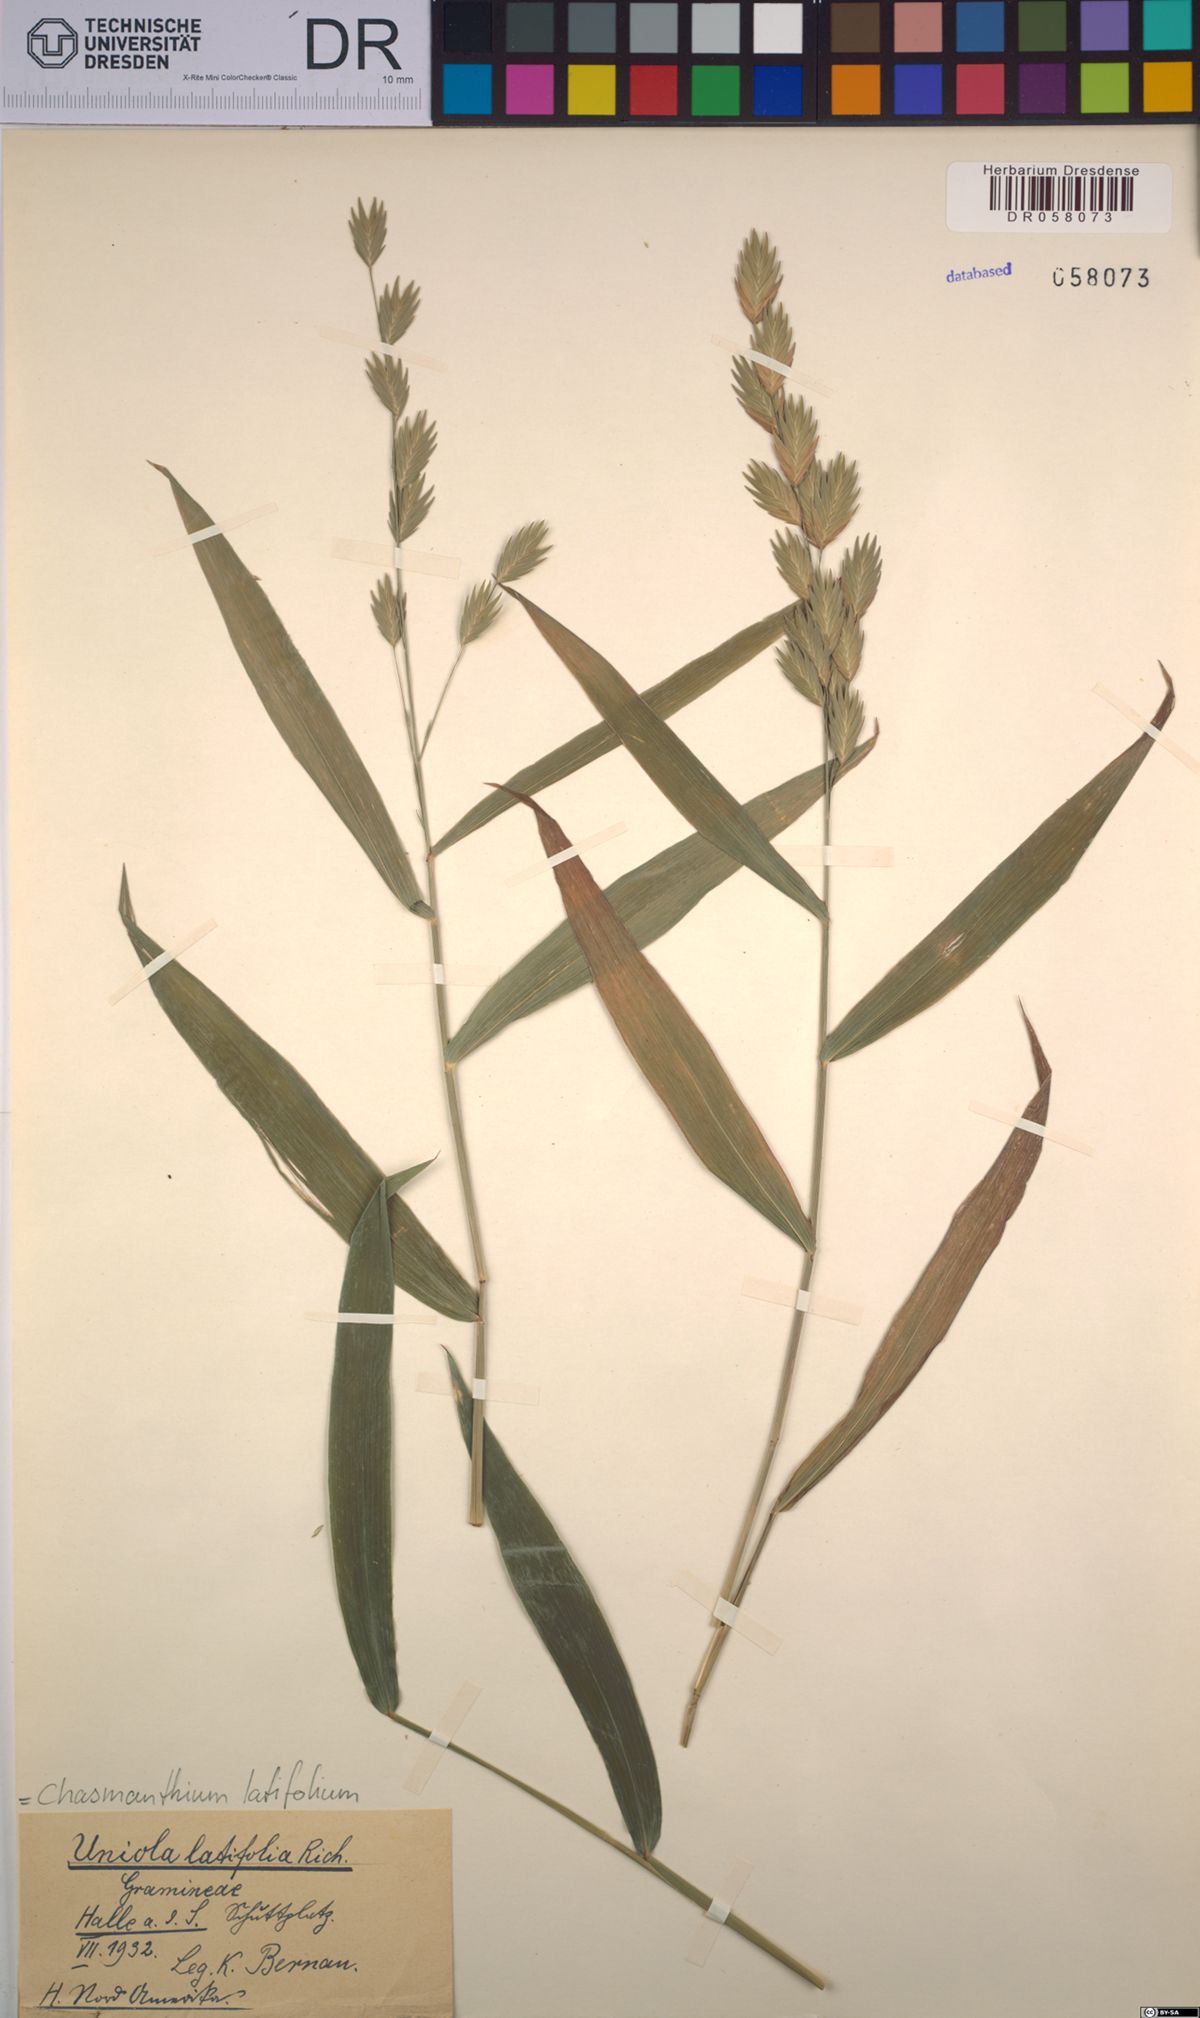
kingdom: Plantae
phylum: Tracheophyta
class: Liliopsida
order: Poales
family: Poaceae
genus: Chasmanthium
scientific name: Chasmanthium latifolium
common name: Broad-leaved chasmanthium
